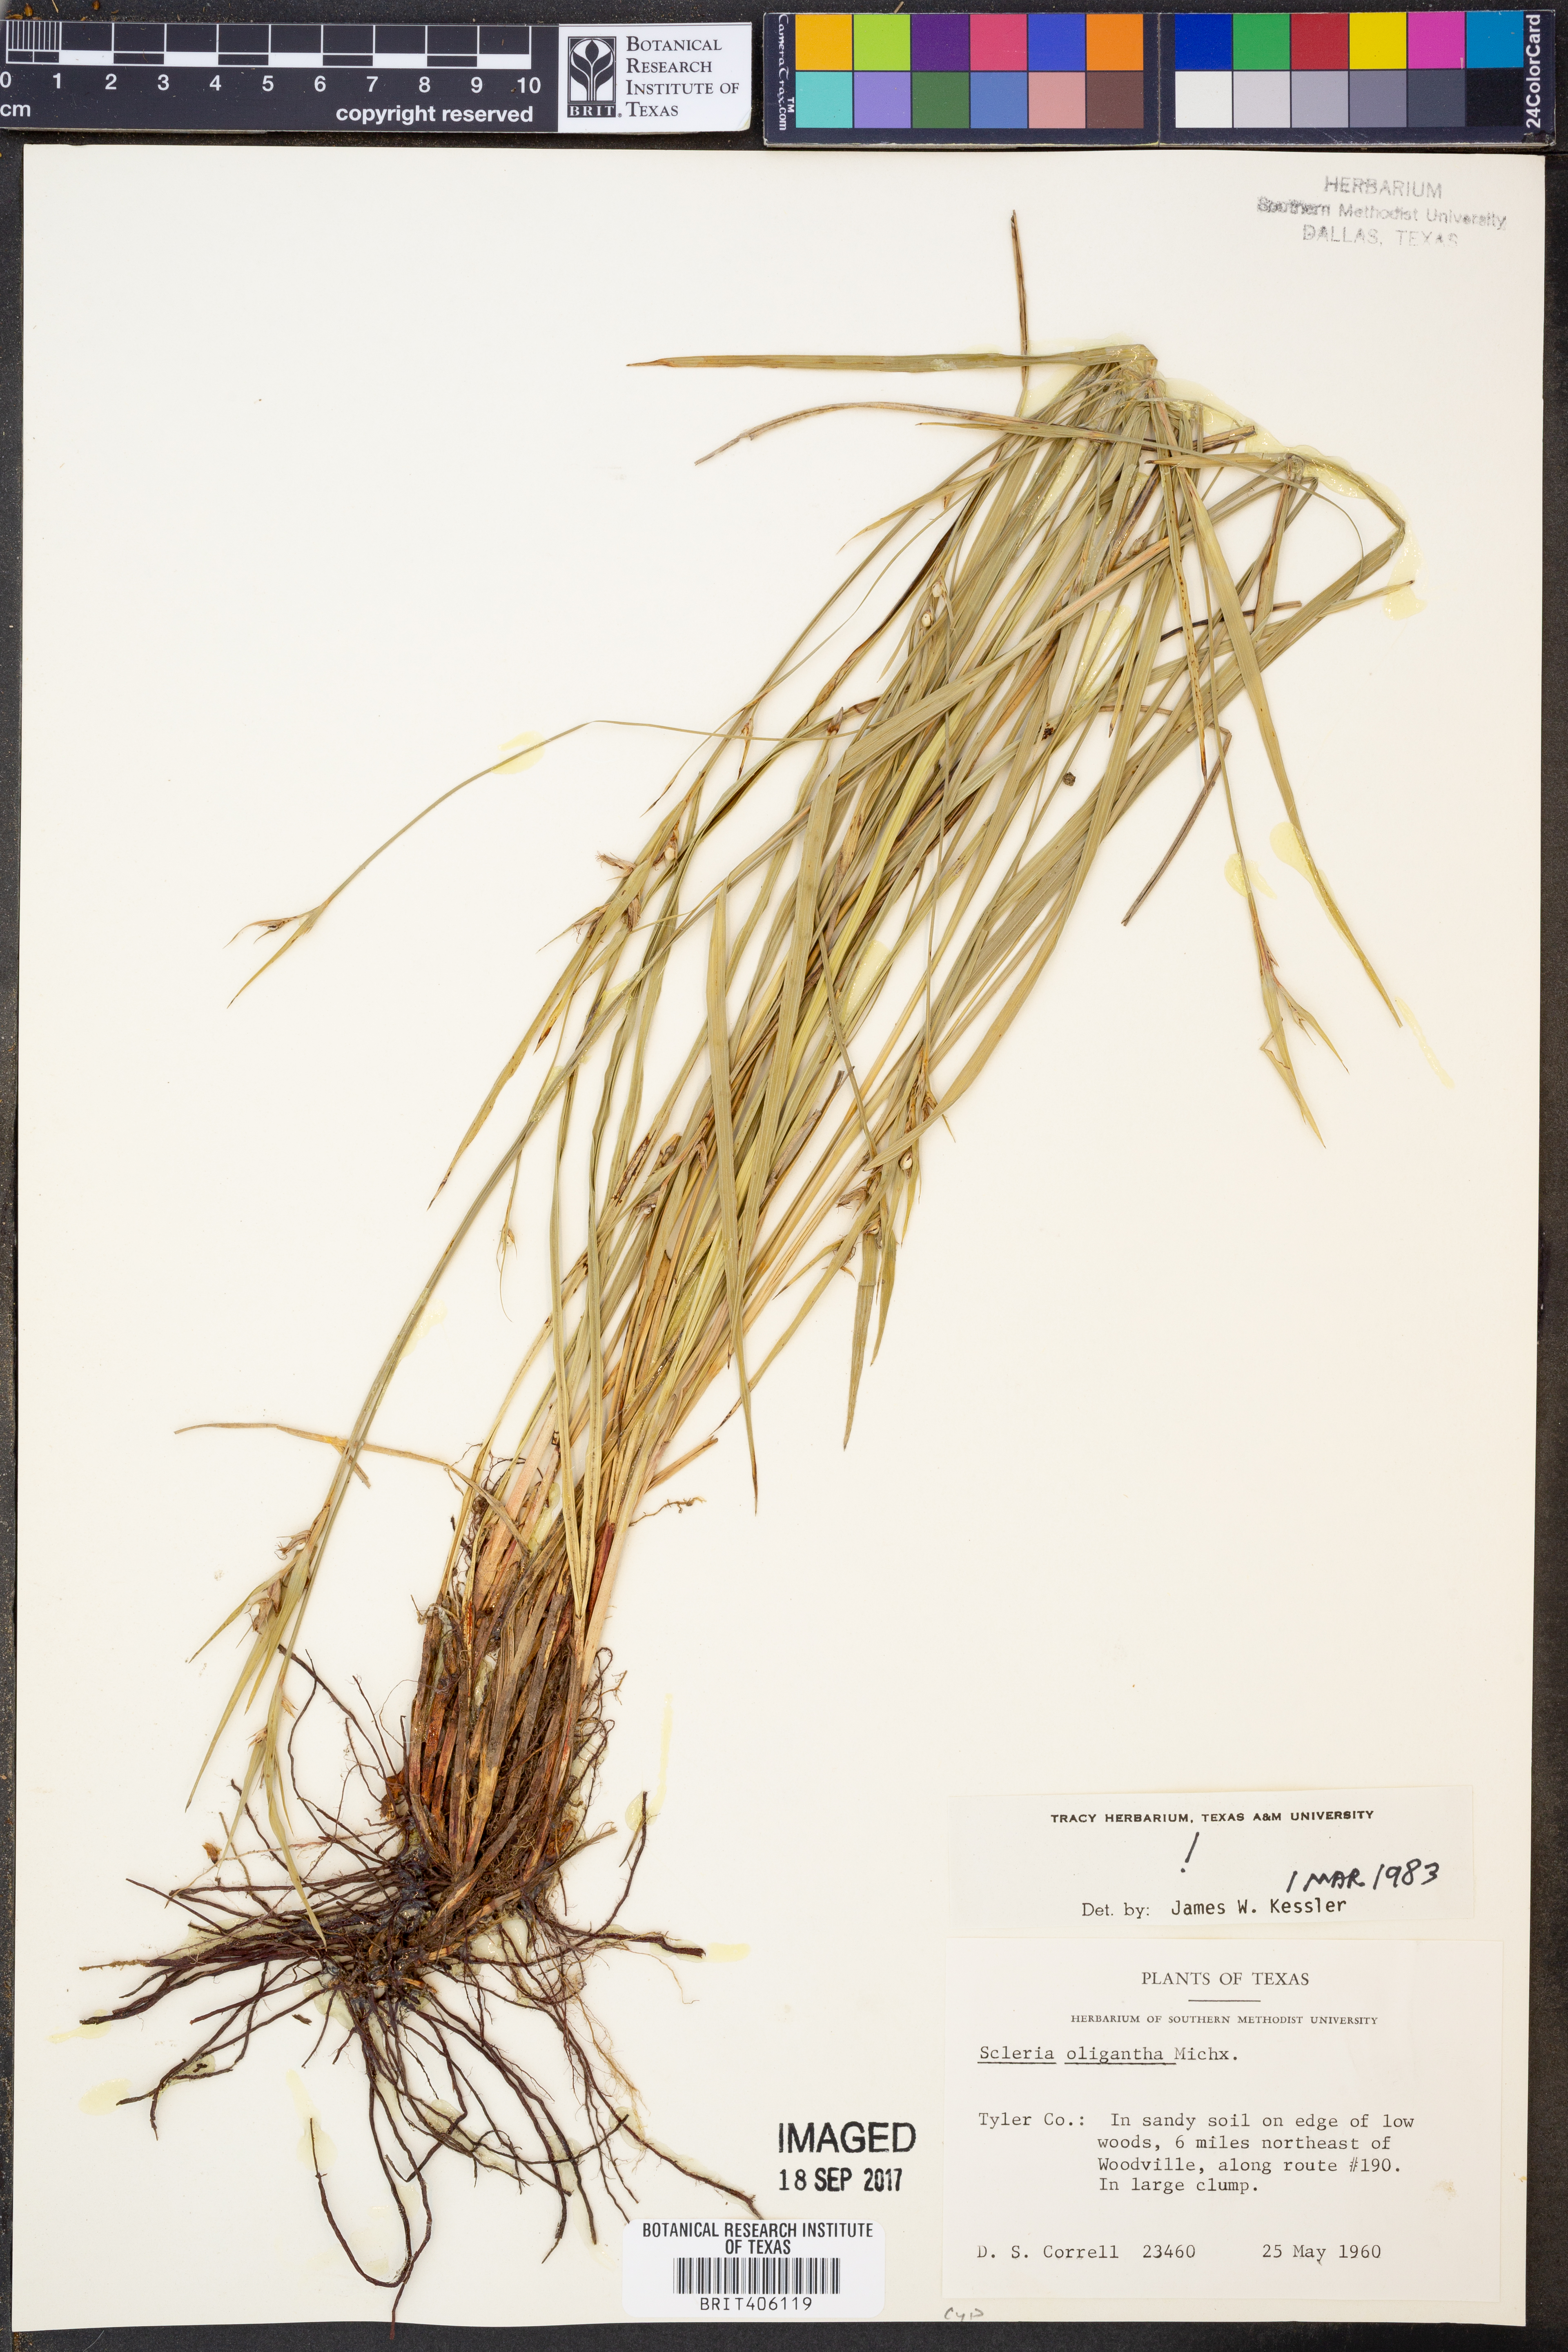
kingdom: Plantae
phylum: Tracheophyta
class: Liliopsida
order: Poales
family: Cyperaceae
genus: Scleria
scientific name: Scleria oligantha
